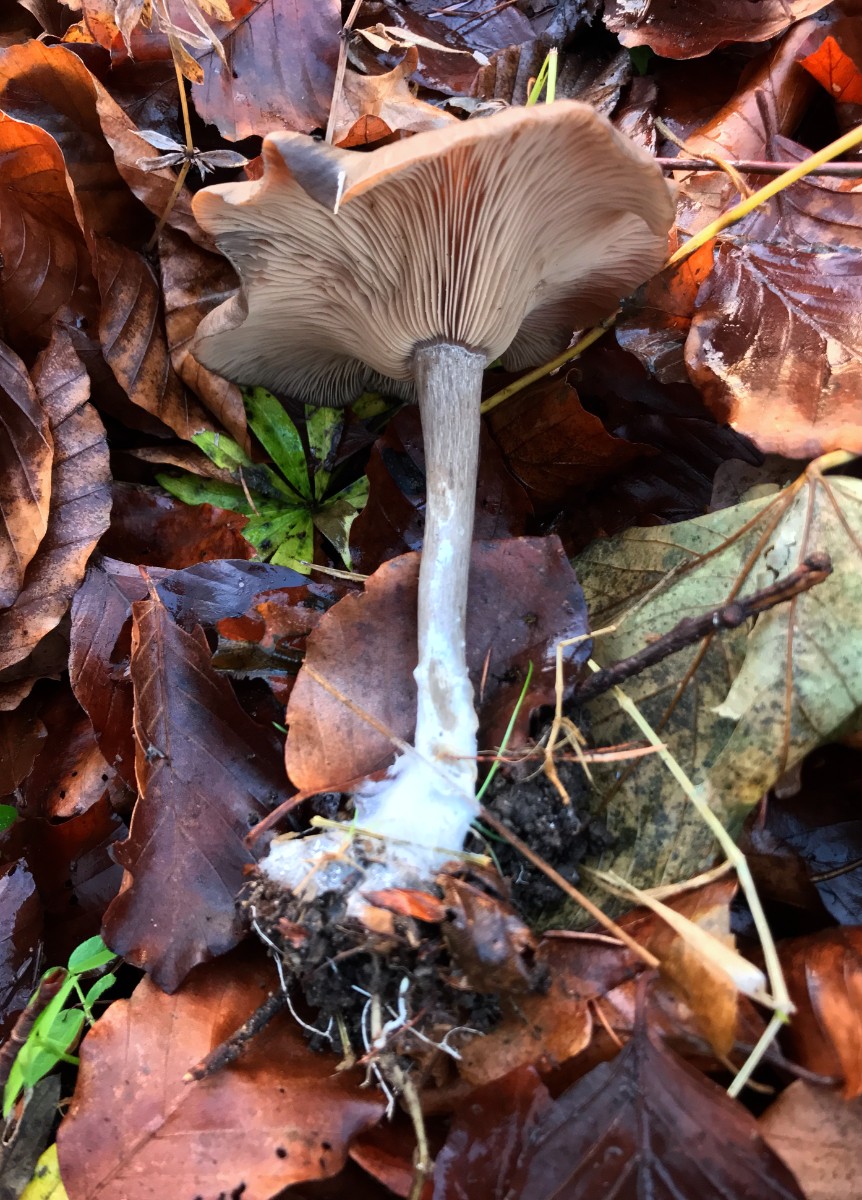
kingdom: Fungi
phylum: Basidiomycota
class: Agaricomycetes
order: Agaricales
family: Pseudoclitocybaceae
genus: Pseudoclitocybe
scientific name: Pseudoclitocybe cyathiformis
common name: almindelig bægertragthat
